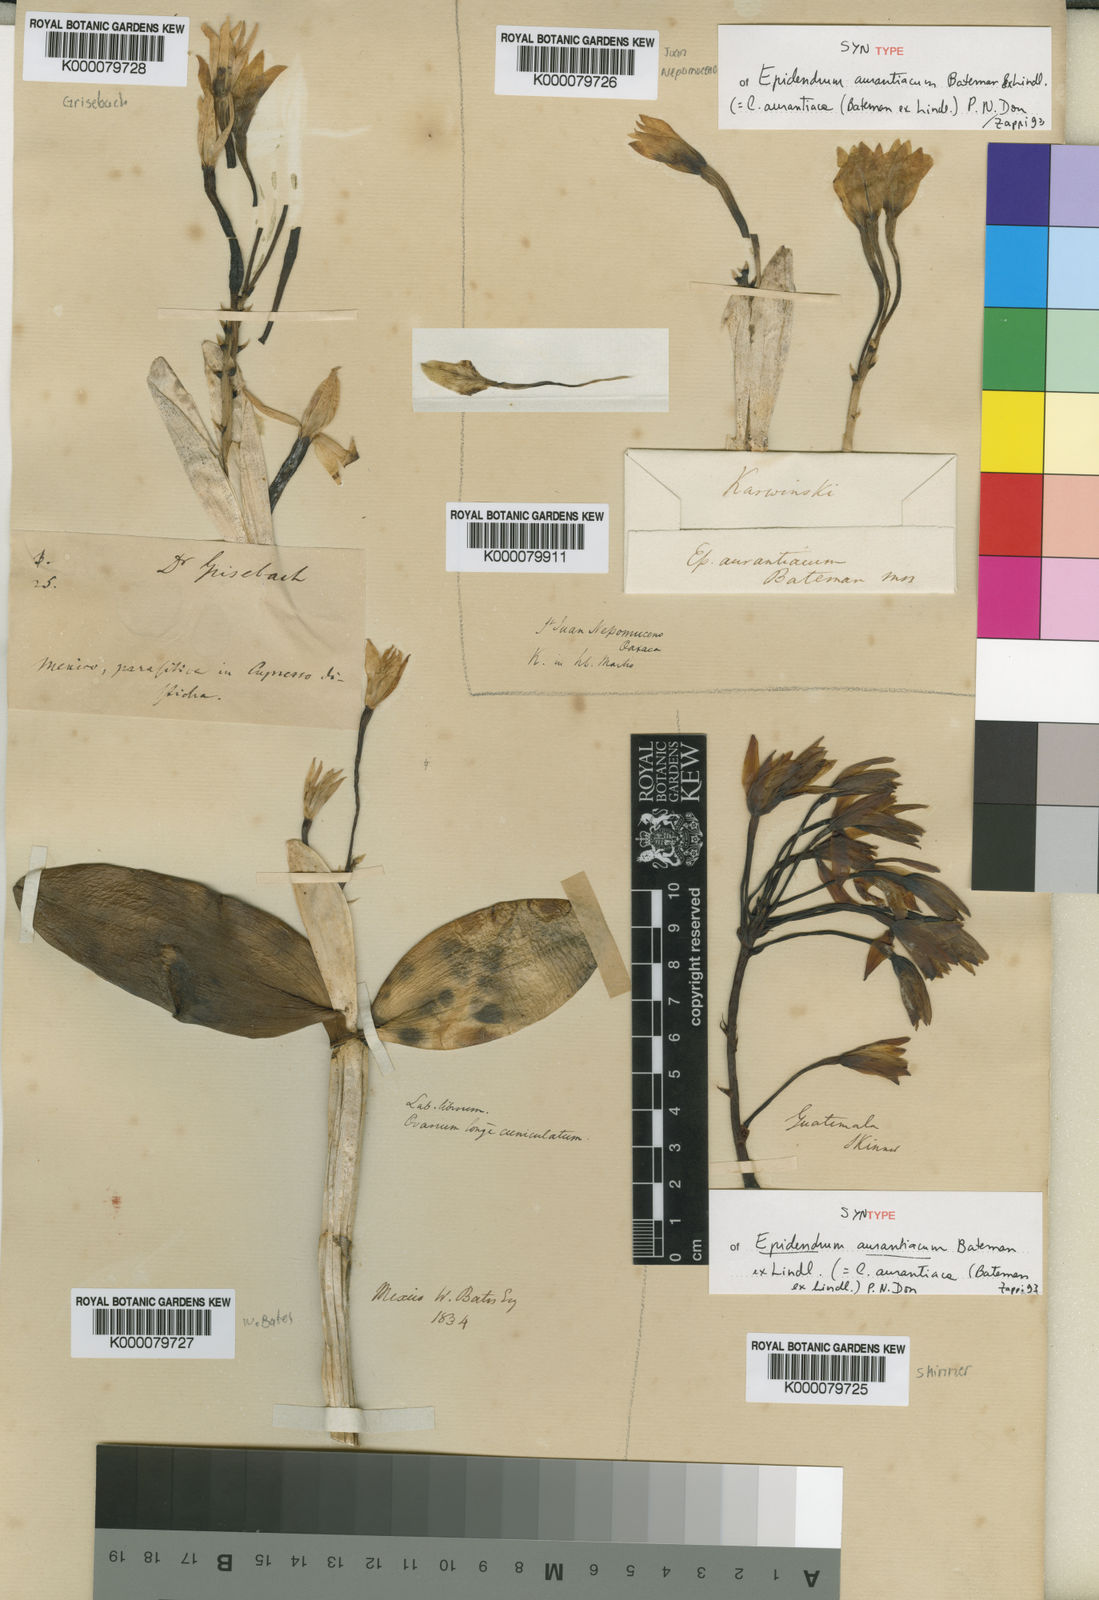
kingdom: Plantae
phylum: Tracheophyta
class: Liliopsida
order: Asparagales
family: Orchidaceae
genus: Guarianthe
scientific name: Guarianthe aurantiaca
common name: Orange cattleya
